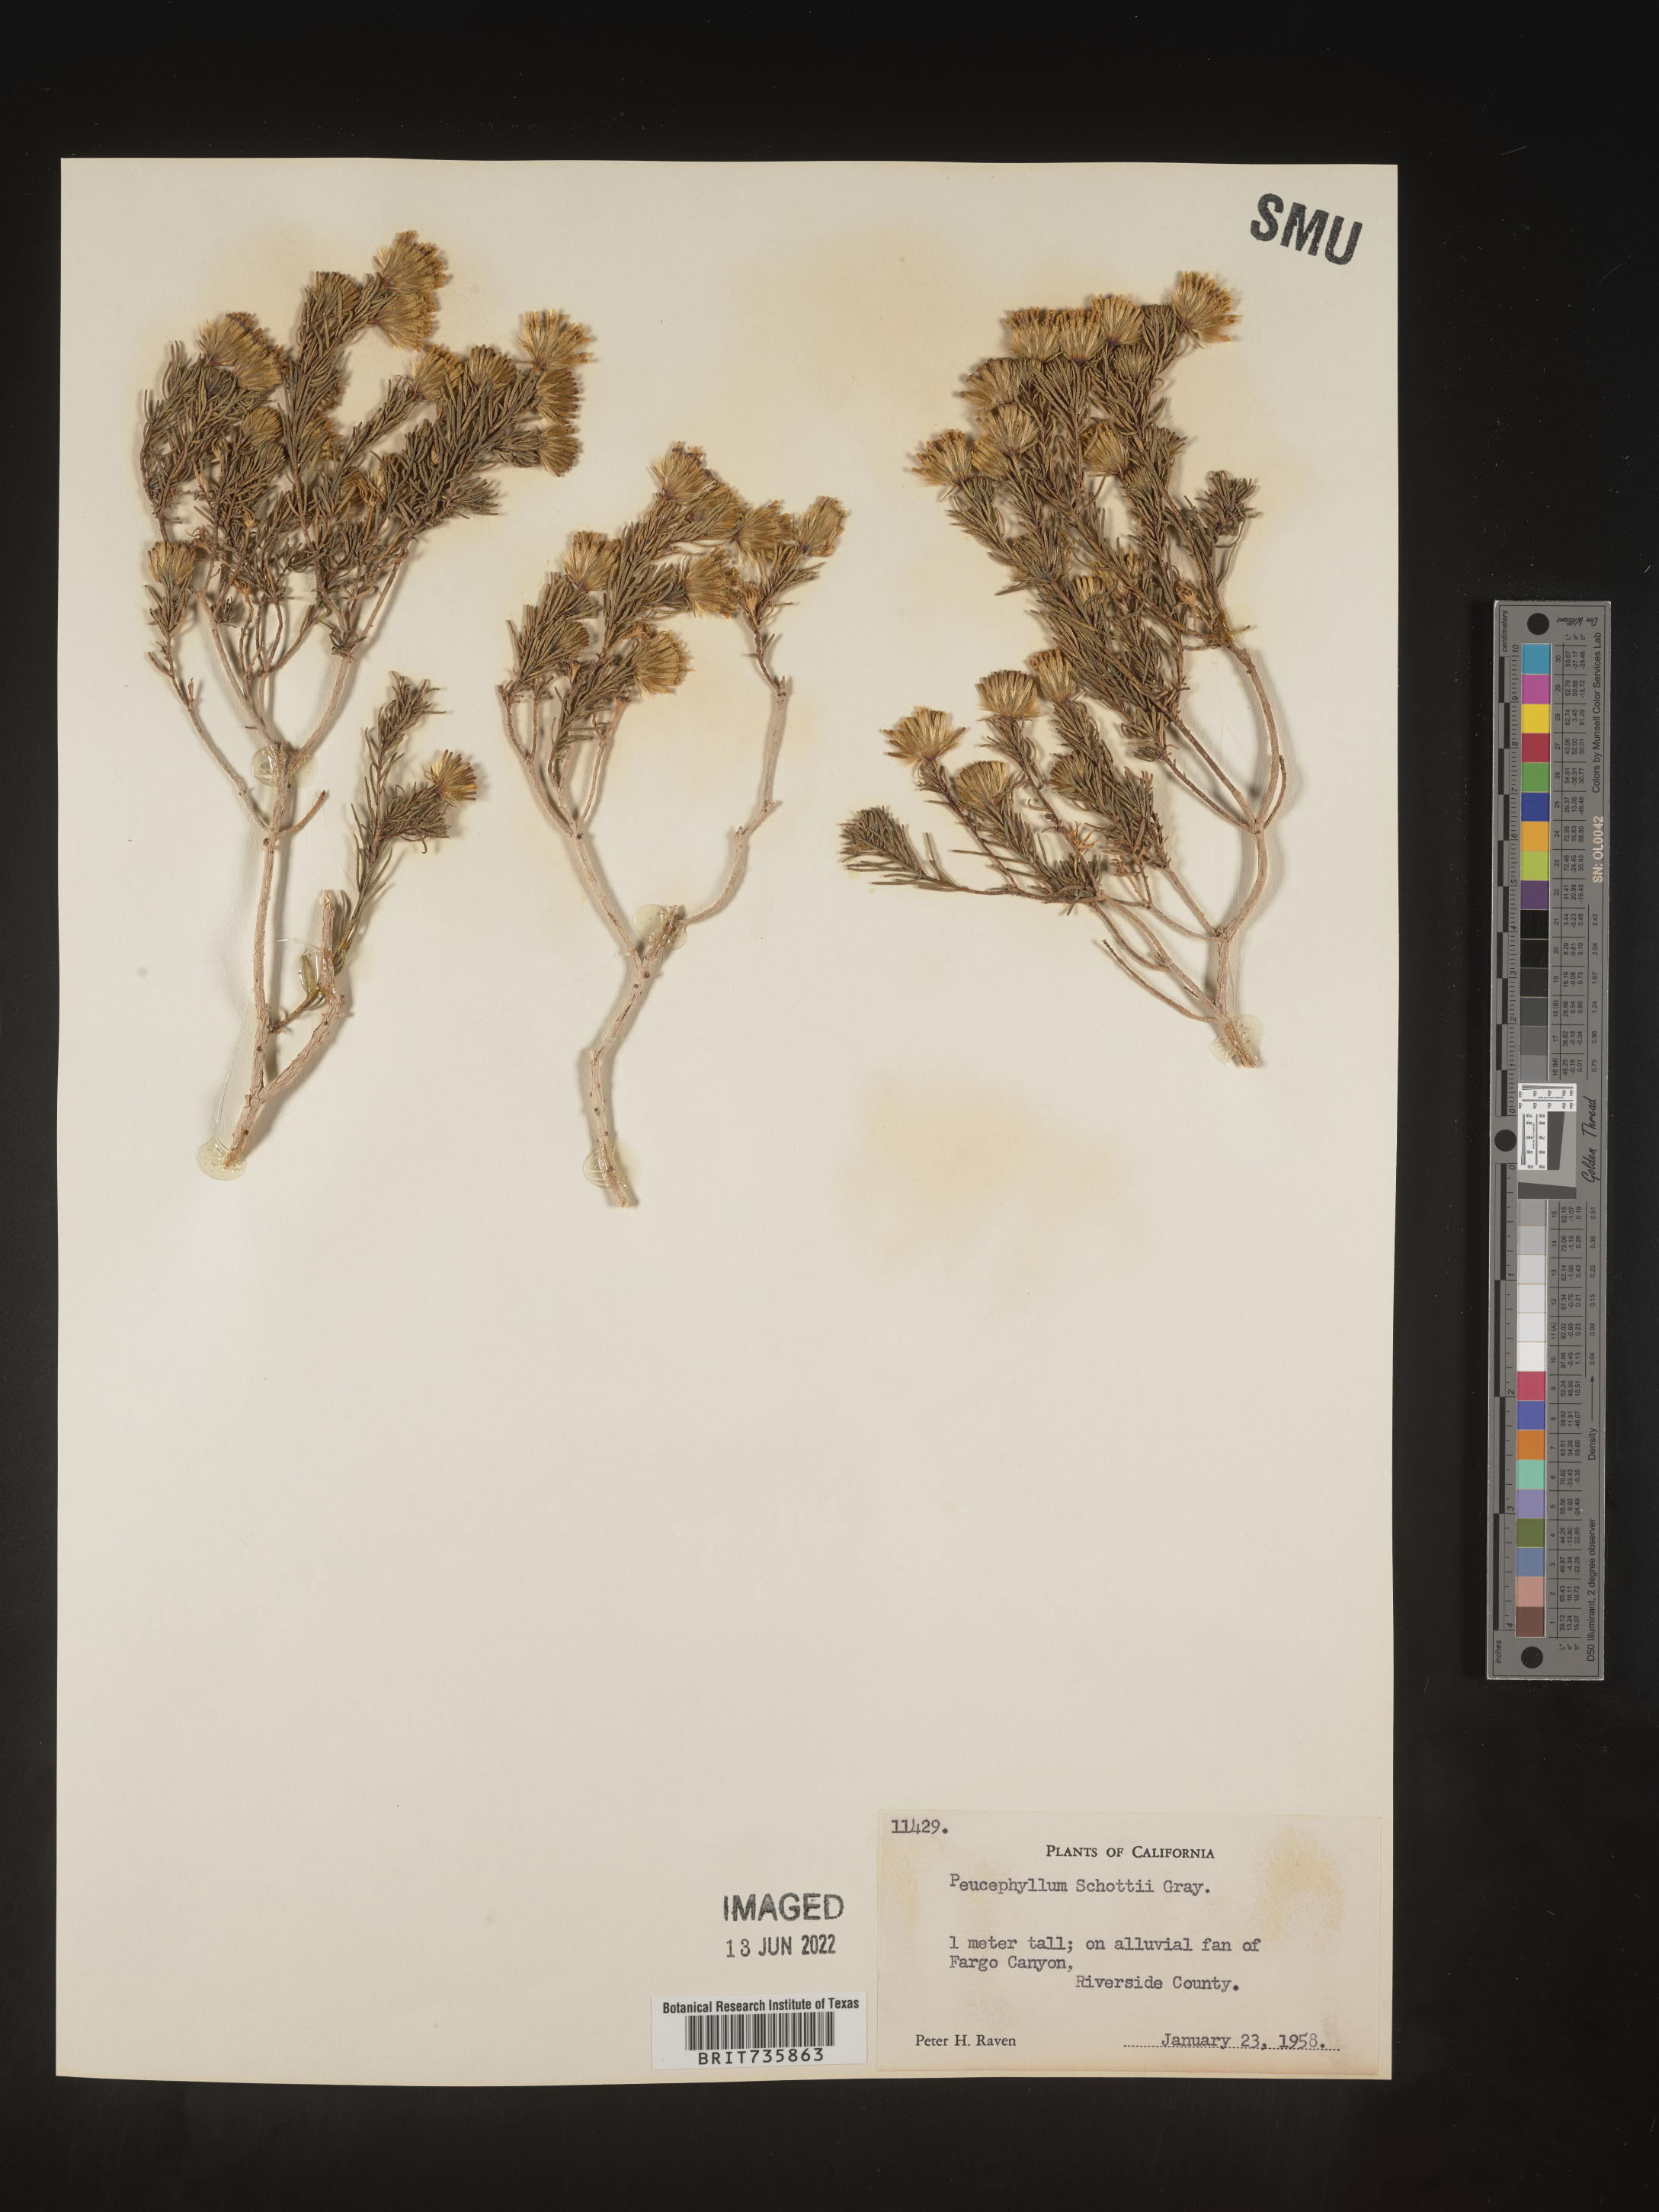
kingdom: Plantae
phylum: Tracheophyta
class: Magnoliopsida
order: Asterales
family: Asteraceae
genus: Peucephyllum
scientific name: Peucephyllum
